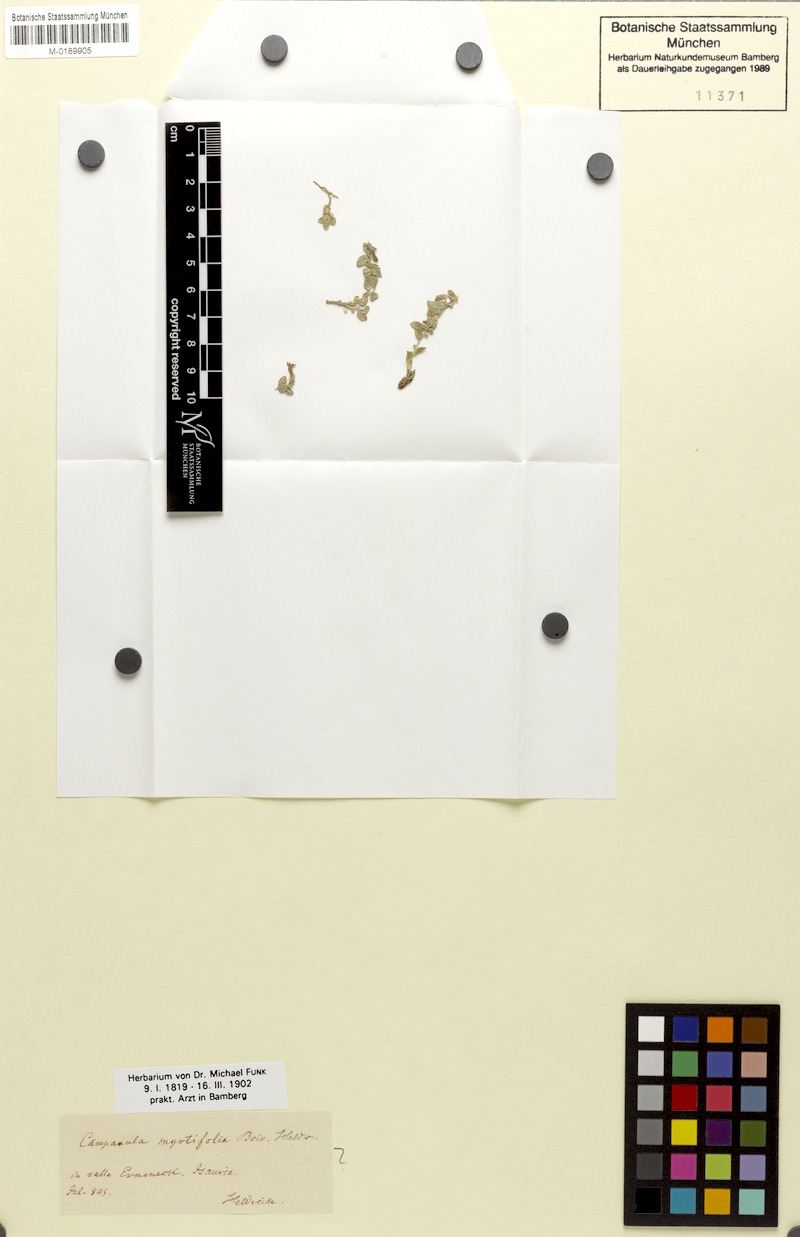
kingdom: Plantae
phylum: Tracheophyta
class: Magnoliopsida
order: Asterales
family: Campanulaceae
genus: Campanula
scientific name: Campanula myrtifolia
